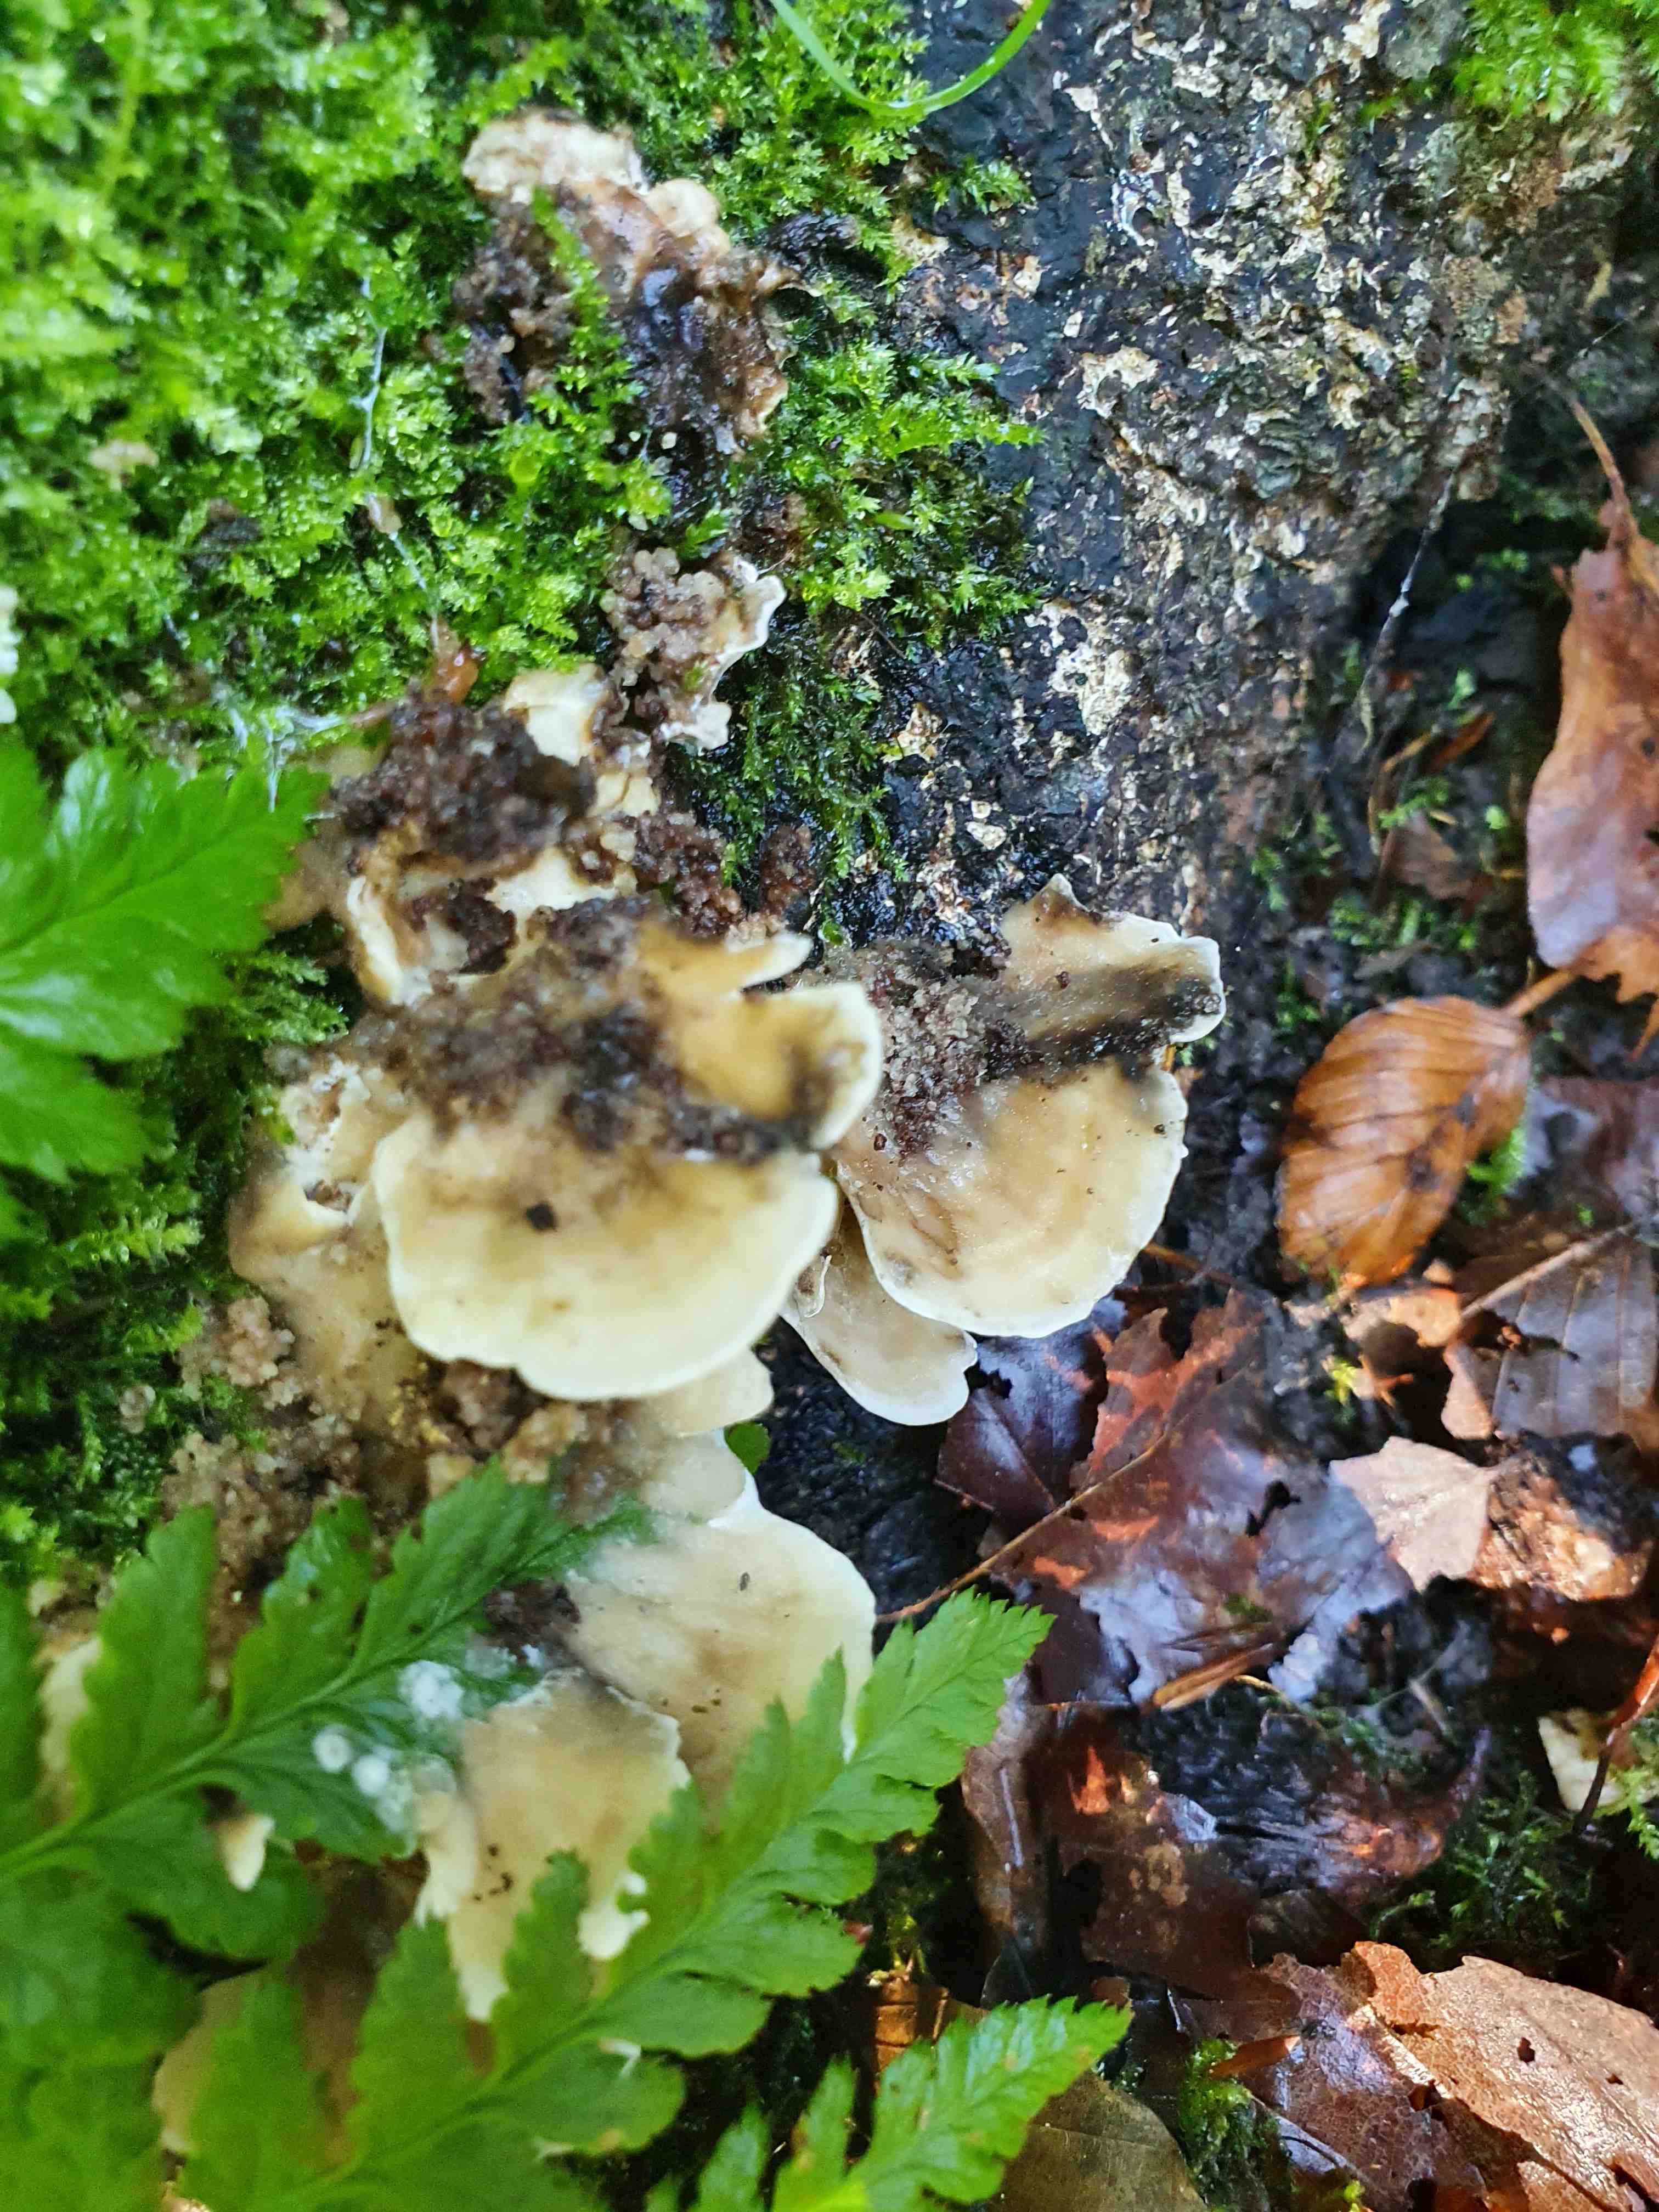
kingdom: Fungi
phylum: Basidiomycota
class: Agaricomycetes
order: Polyporales
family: Phanerochaetaceae
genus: Bjerkandera
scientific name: Bjerkandera adusta
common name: sveden sodporesvamp
